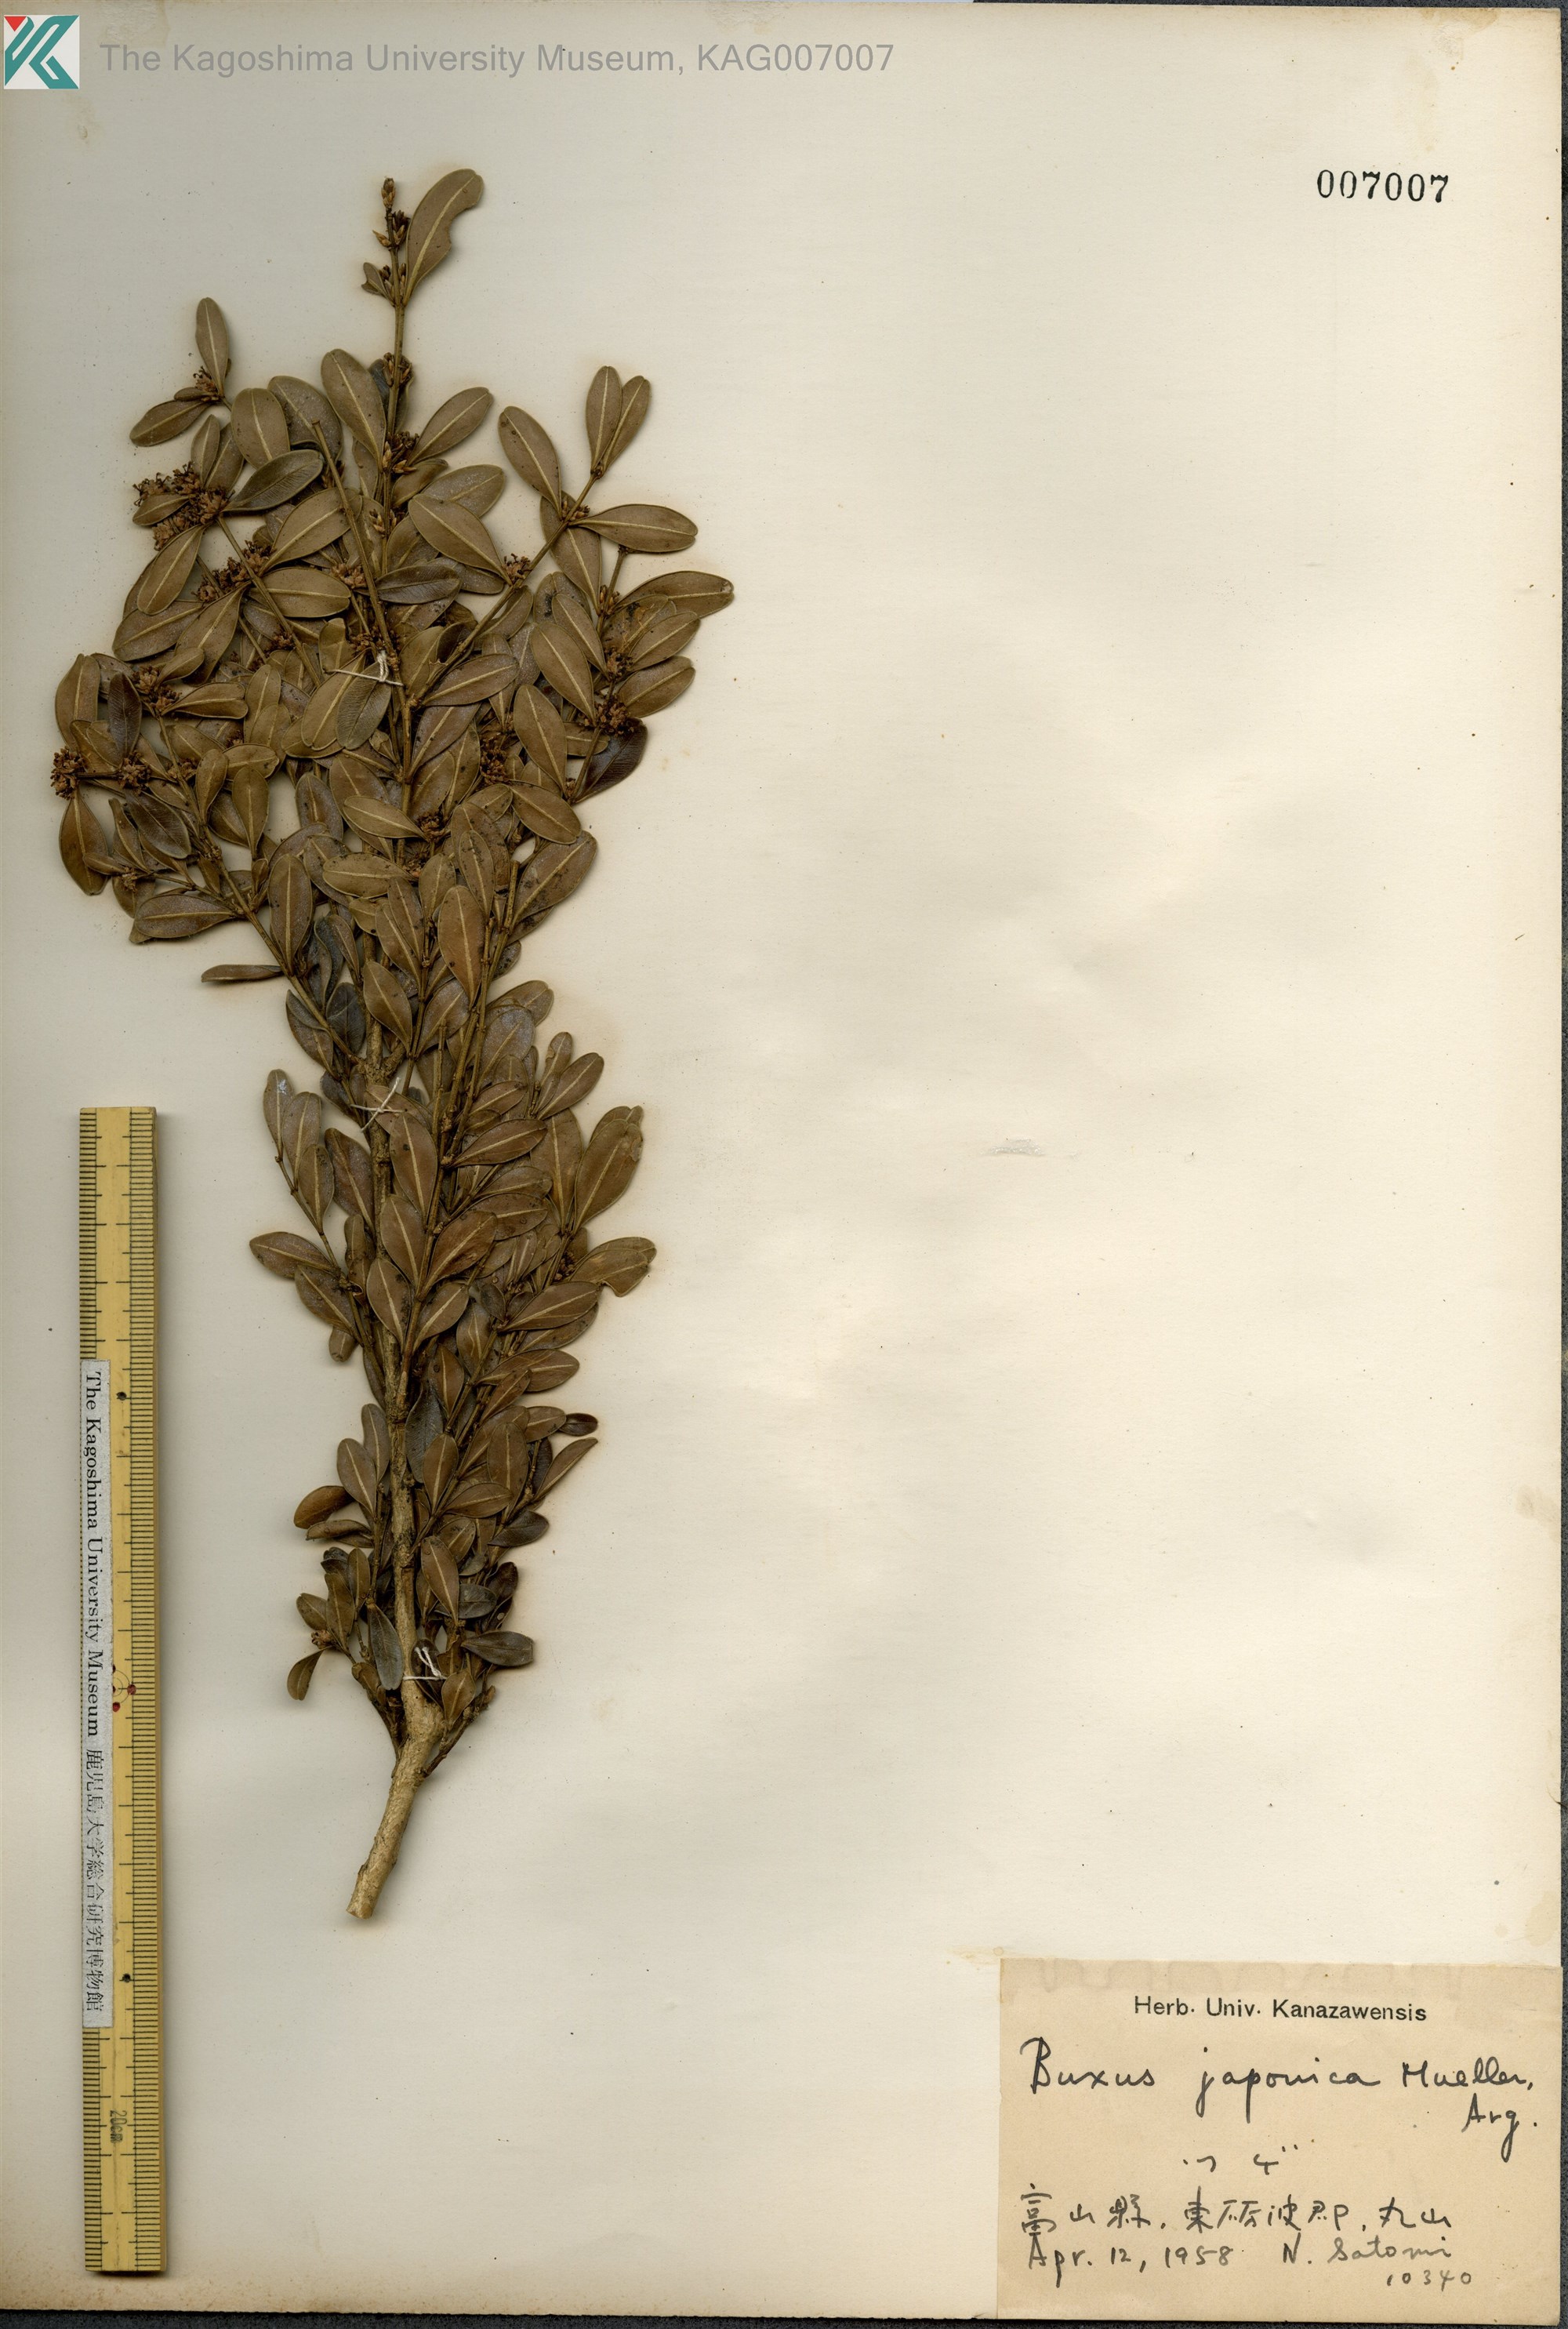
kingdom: Plantae
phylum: Tracheophyta
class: Magnoliopsida
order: Buxales
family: Buxaceae
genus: Buxus
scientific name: Buxus microphylla
